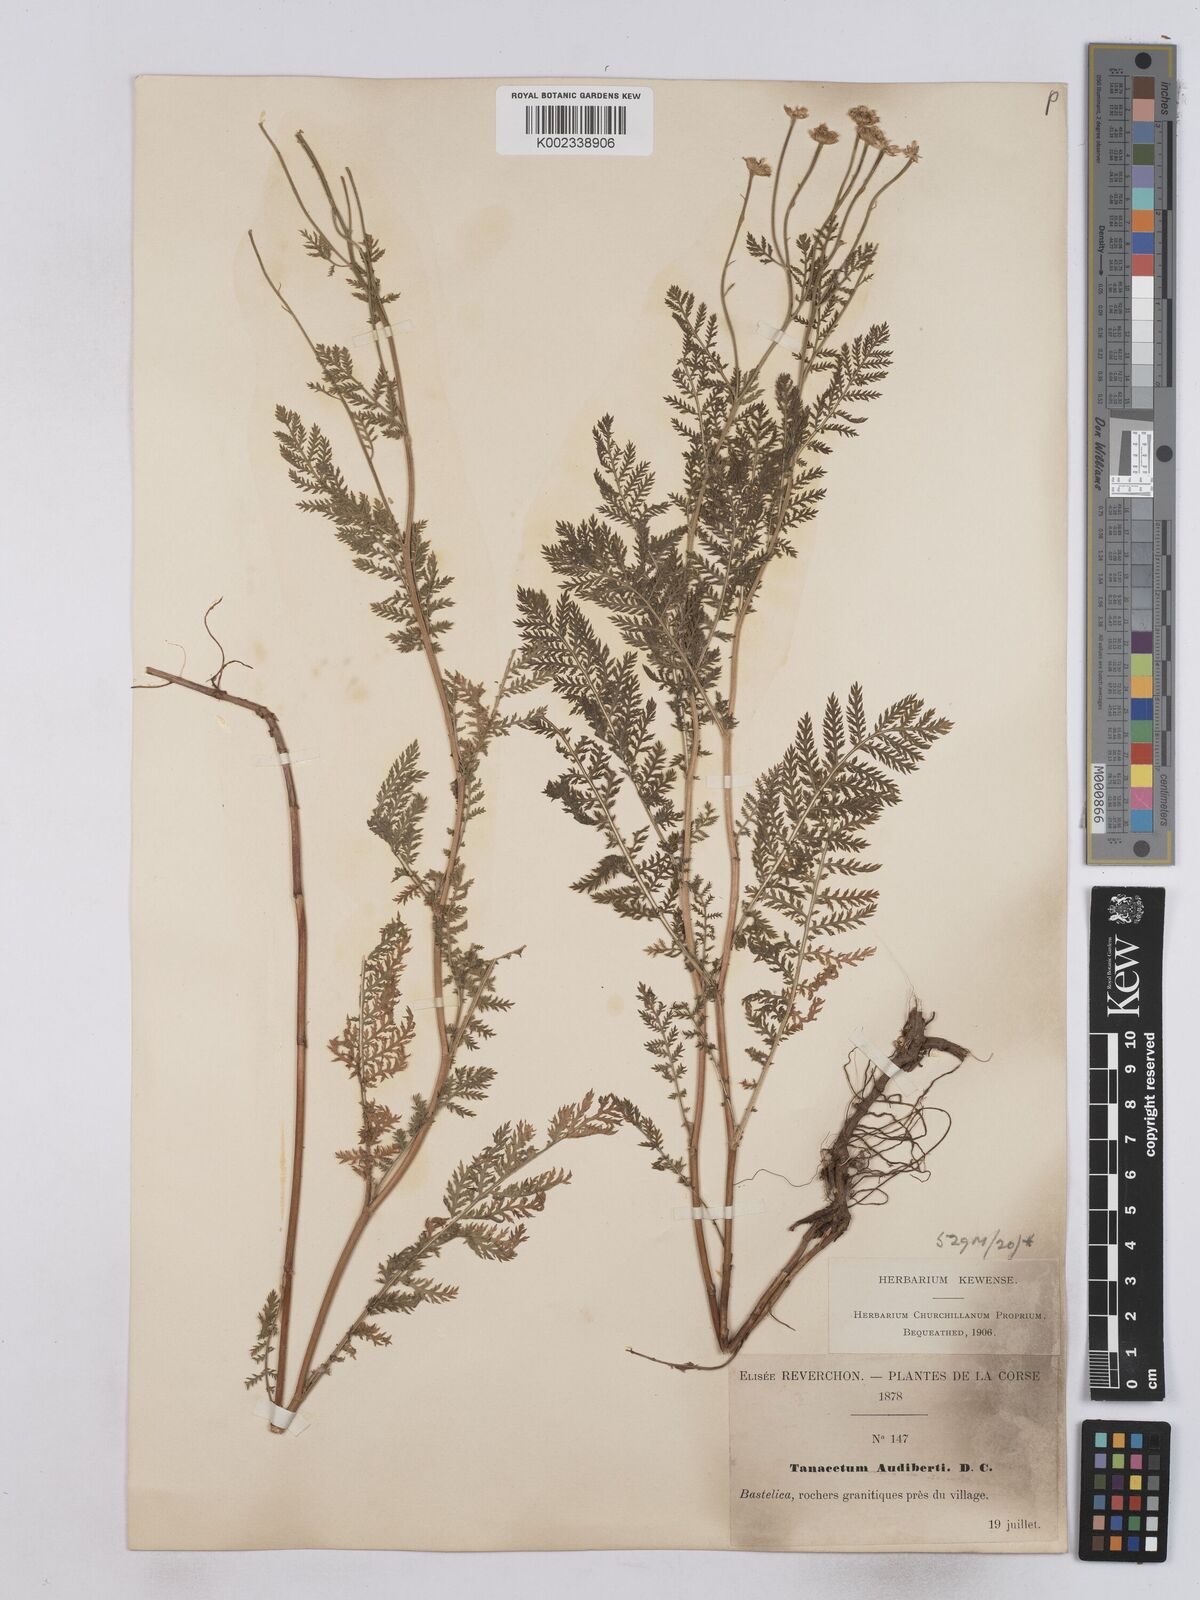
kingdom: Plantae
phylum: Tracheophyta
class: Magnoliopsida
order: Asterales
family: Asteraceae
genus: Tanacetum
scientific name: Tanacetum audibertii
